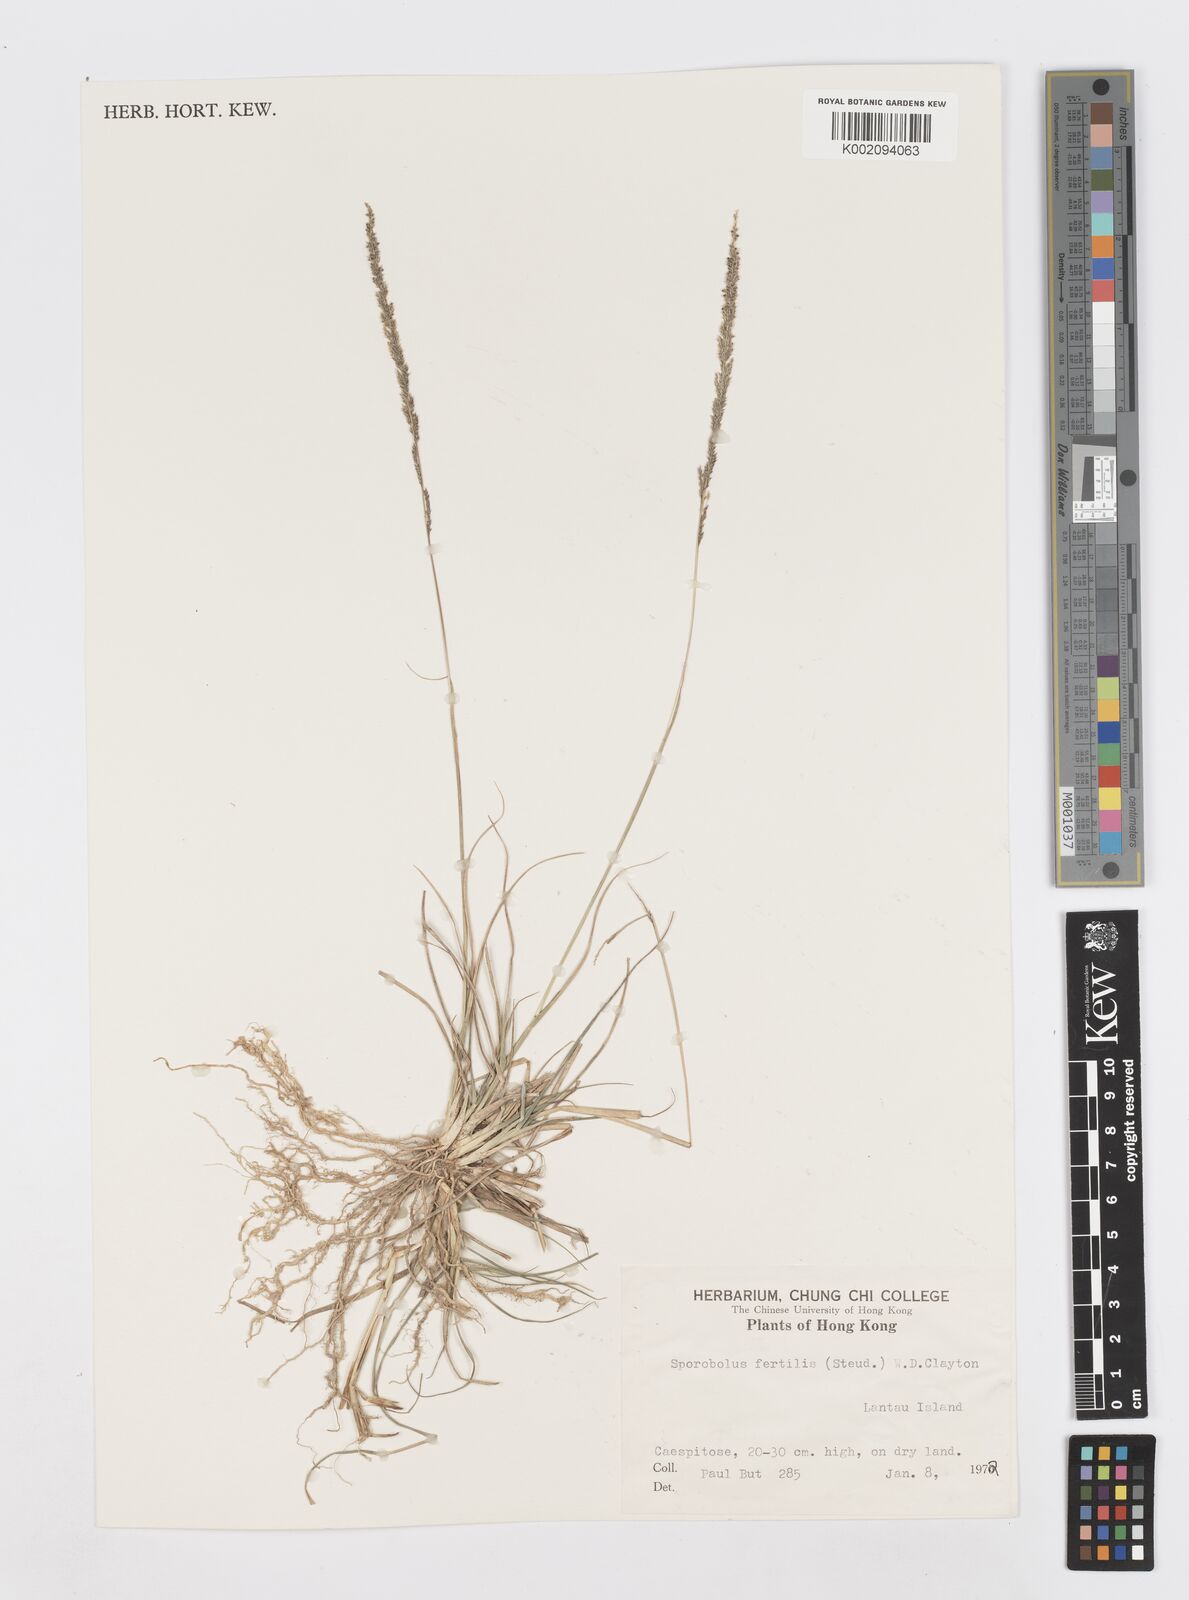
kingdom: Plantae
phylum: Tracheophyta
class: Liliopsida
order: Poales
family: Poaceae
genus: Sporobolus
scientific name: Sporobolus fertilis
